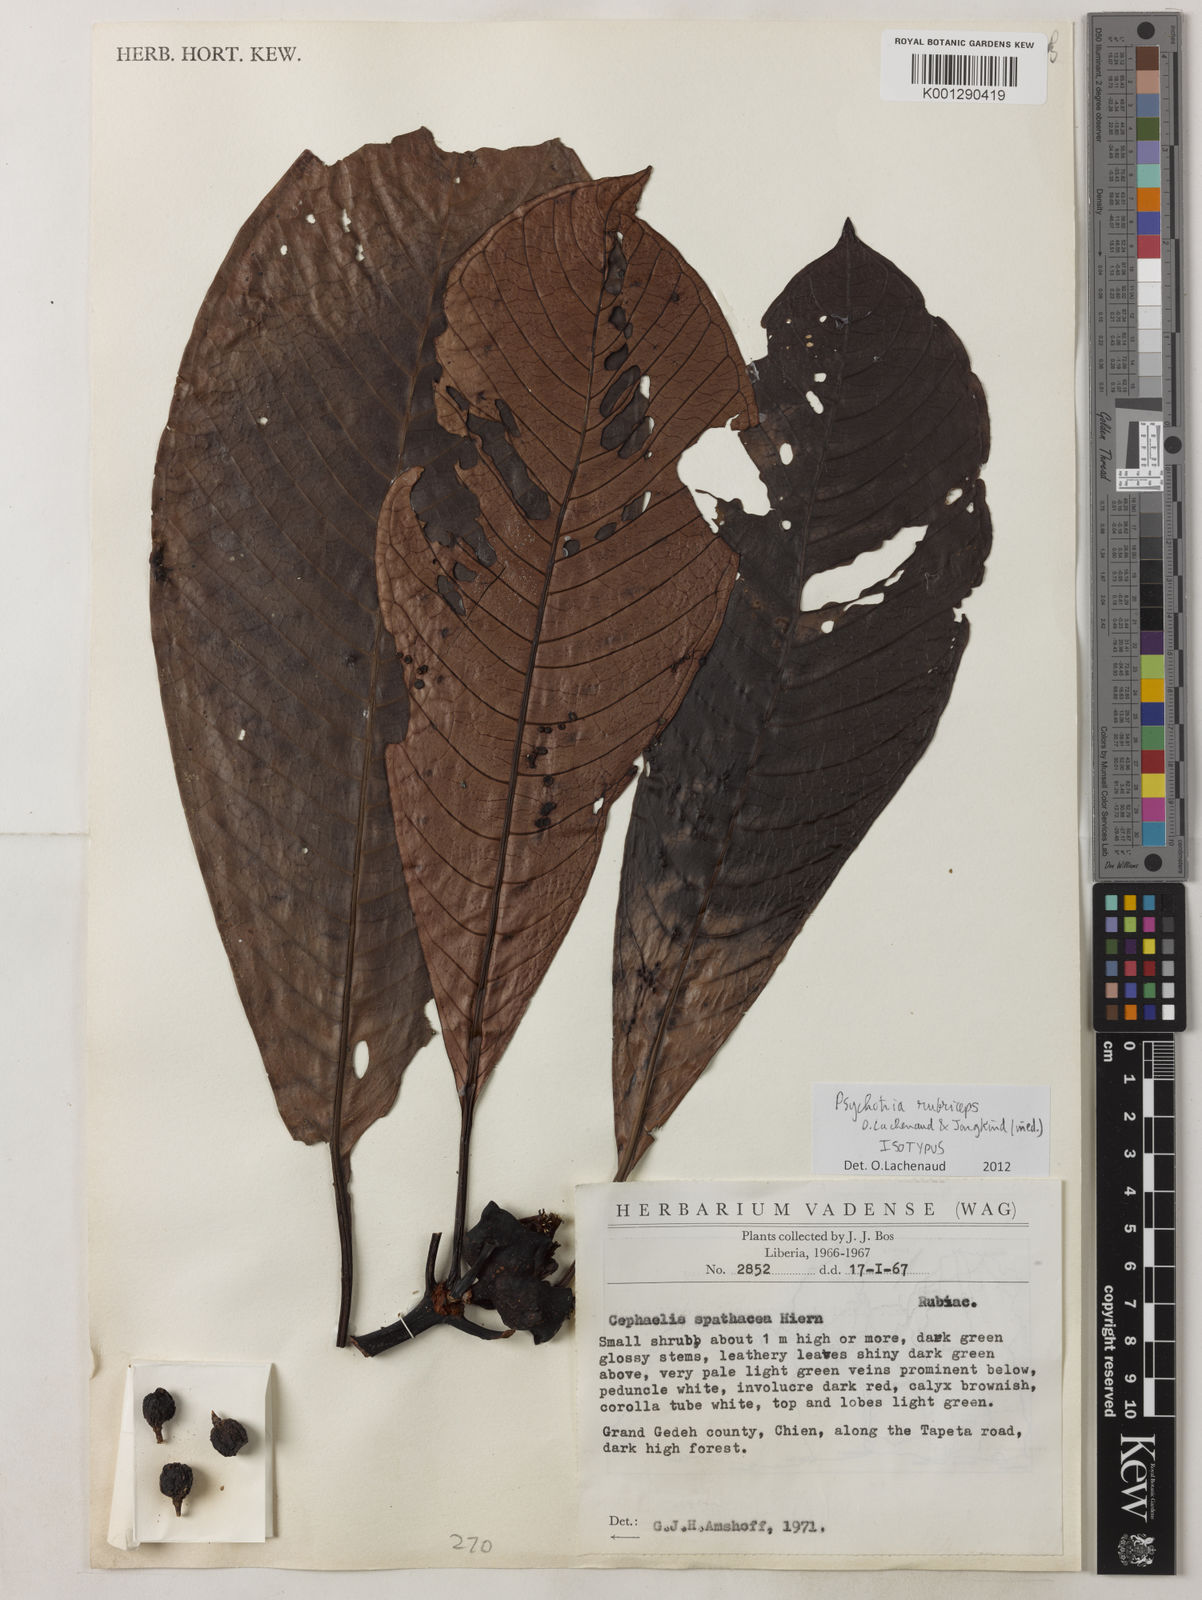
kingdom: Plantae
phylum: Tracheophyta
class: Magnoliopsida
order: Gentianales
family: Rubiaceae
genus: Psychotria
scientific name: Psychotria rubriceps
